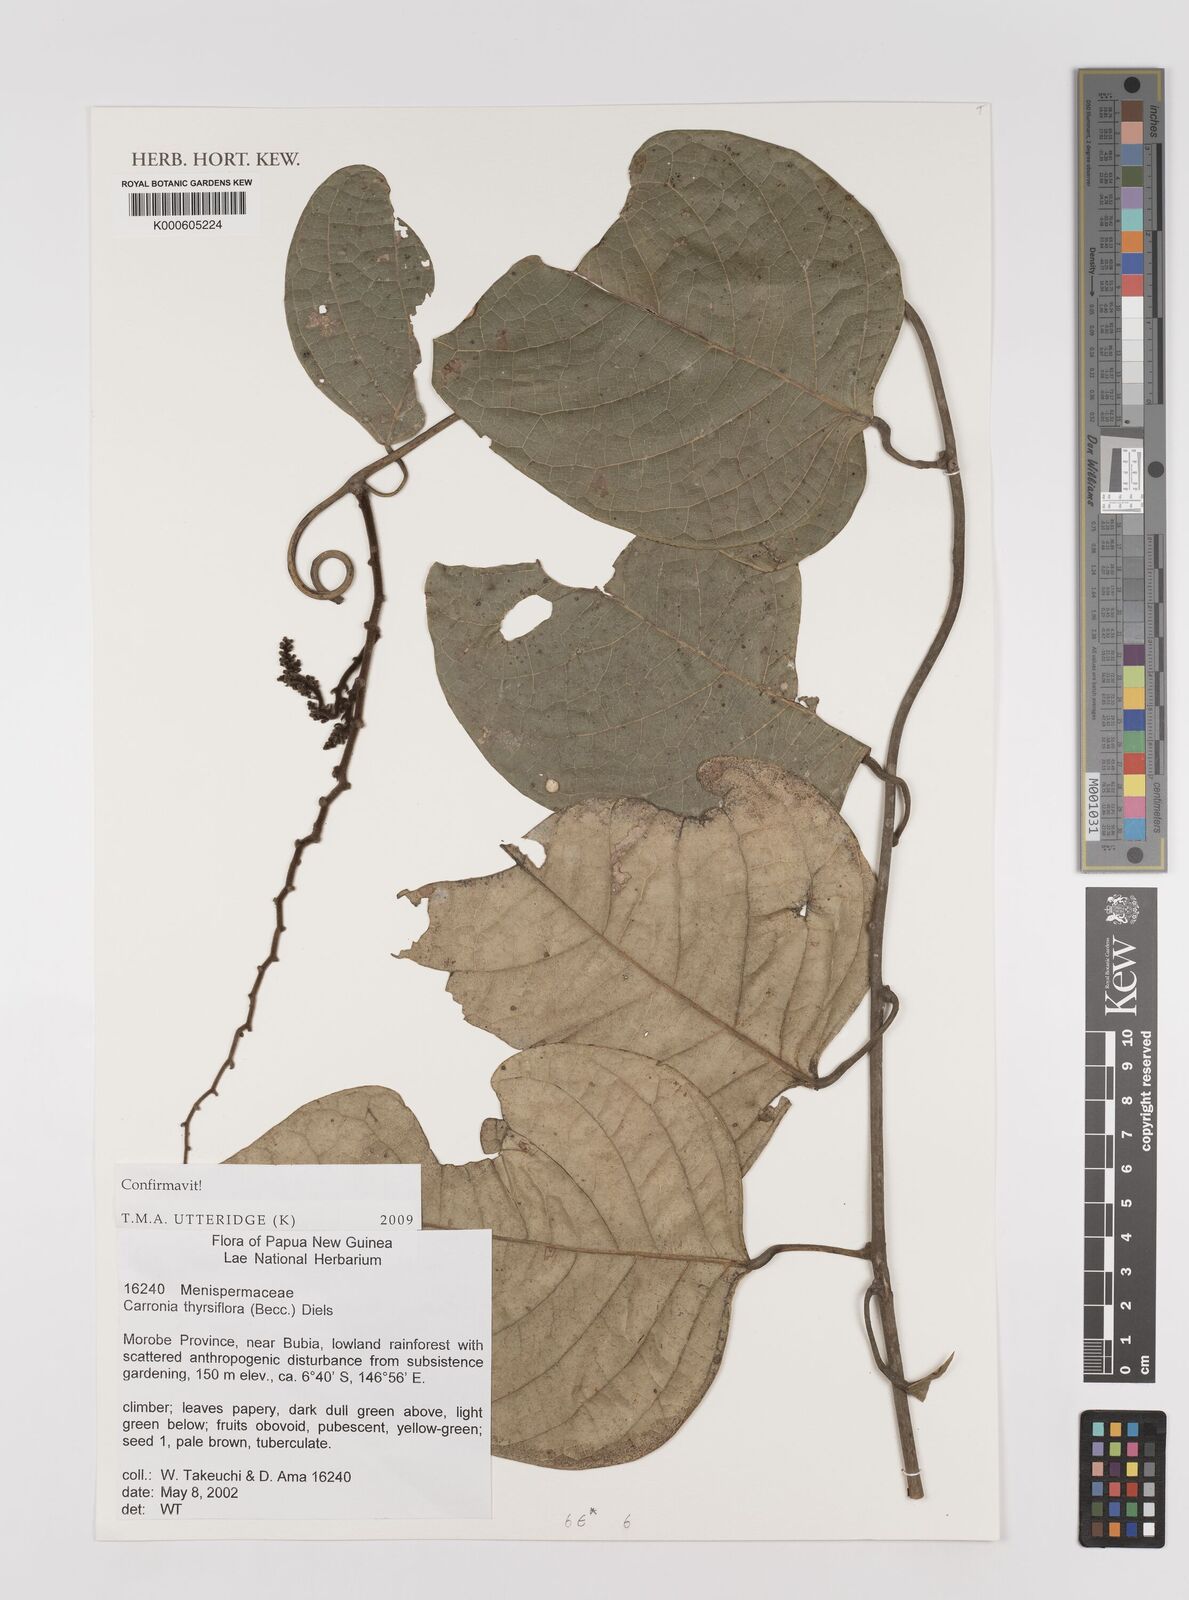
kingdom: Plantae
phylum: Tracheophyta
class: Magnoliopsida
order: Ranunculales
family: Menispermaceae
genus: Carronia
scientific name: Carronia thyrsiflora
